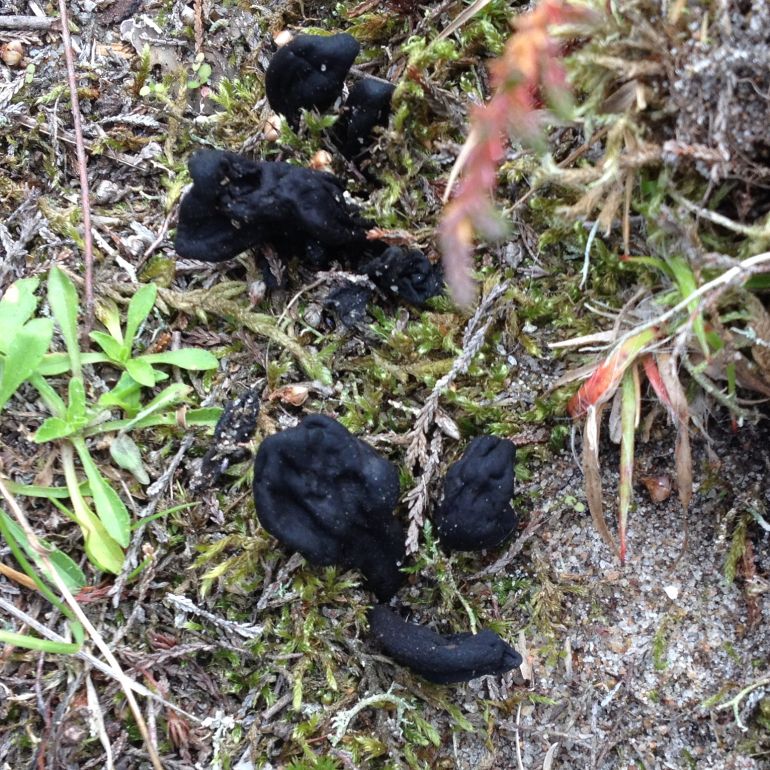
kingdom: Fungi
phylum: Ascomycota
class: Geoglossomycetes
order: Geoglossales
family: Geoglossaceae
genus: Sabuloglossum
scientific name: Sabuloglossum arenarium
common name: klit-jordtunge
